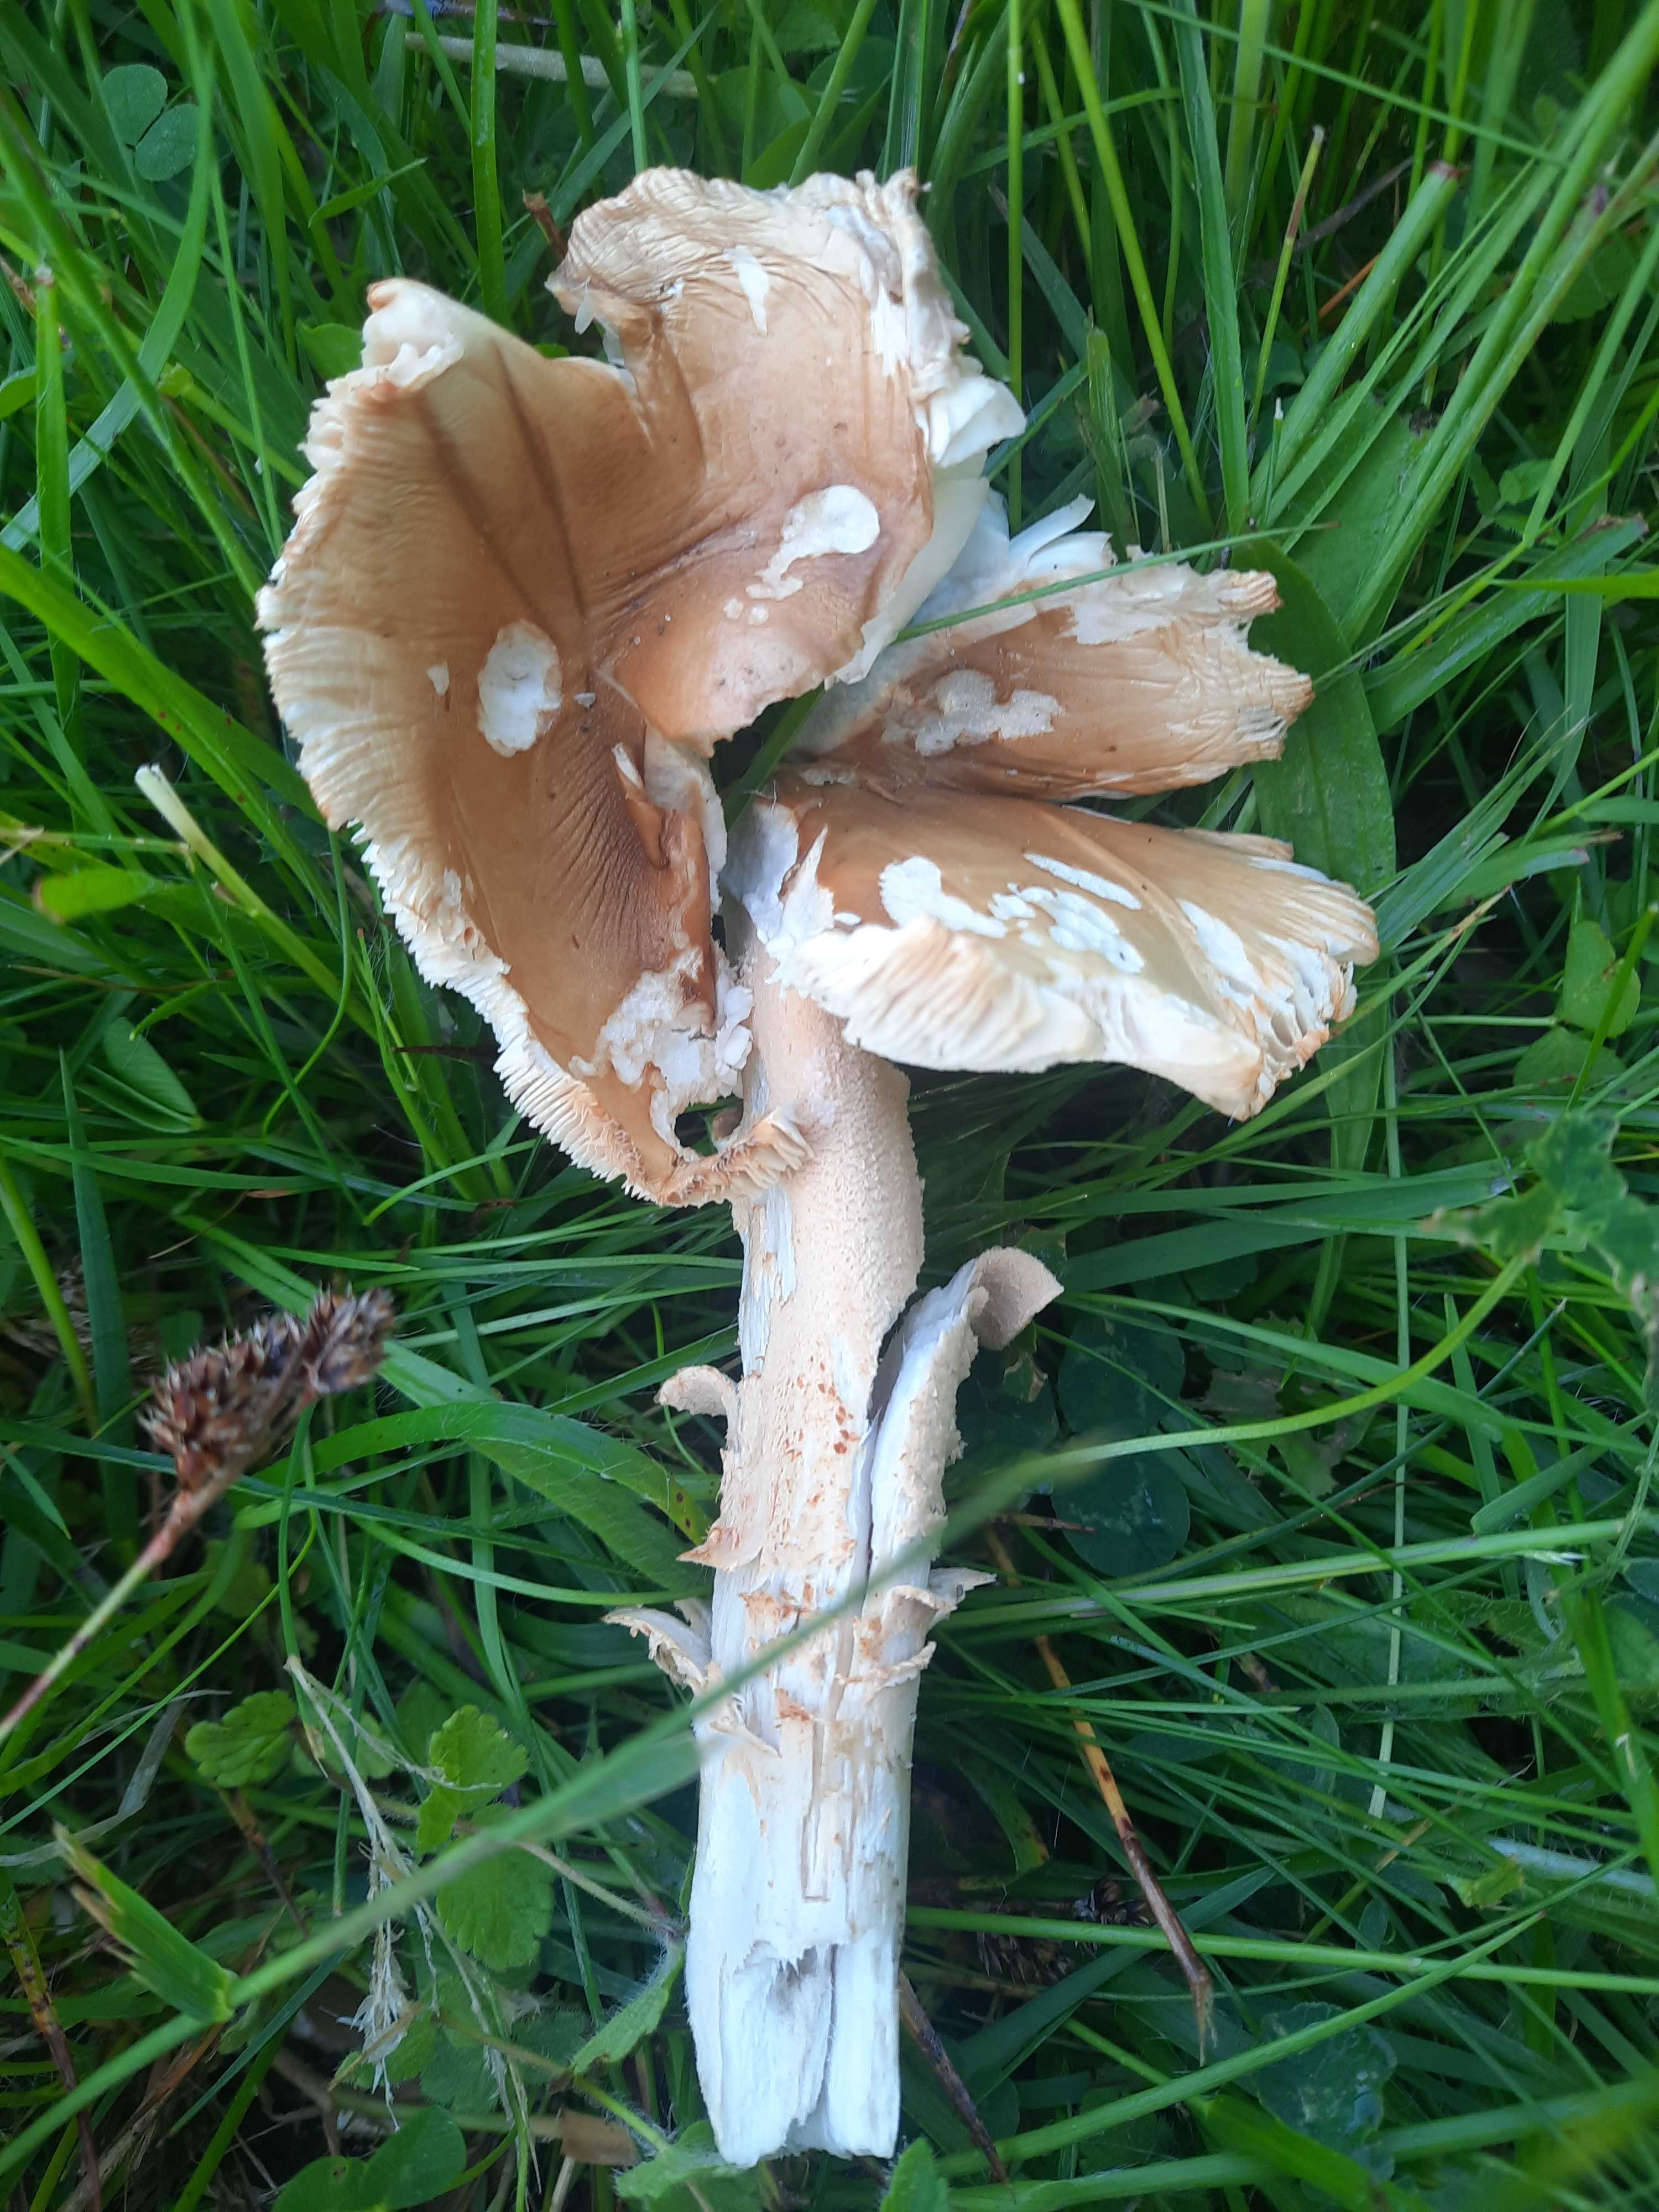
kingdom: Fungi
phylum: Basidiomycota
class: Agaricomycetes
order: Agaricales
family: Amanitaceae
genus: Amanita
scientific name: Amanita
